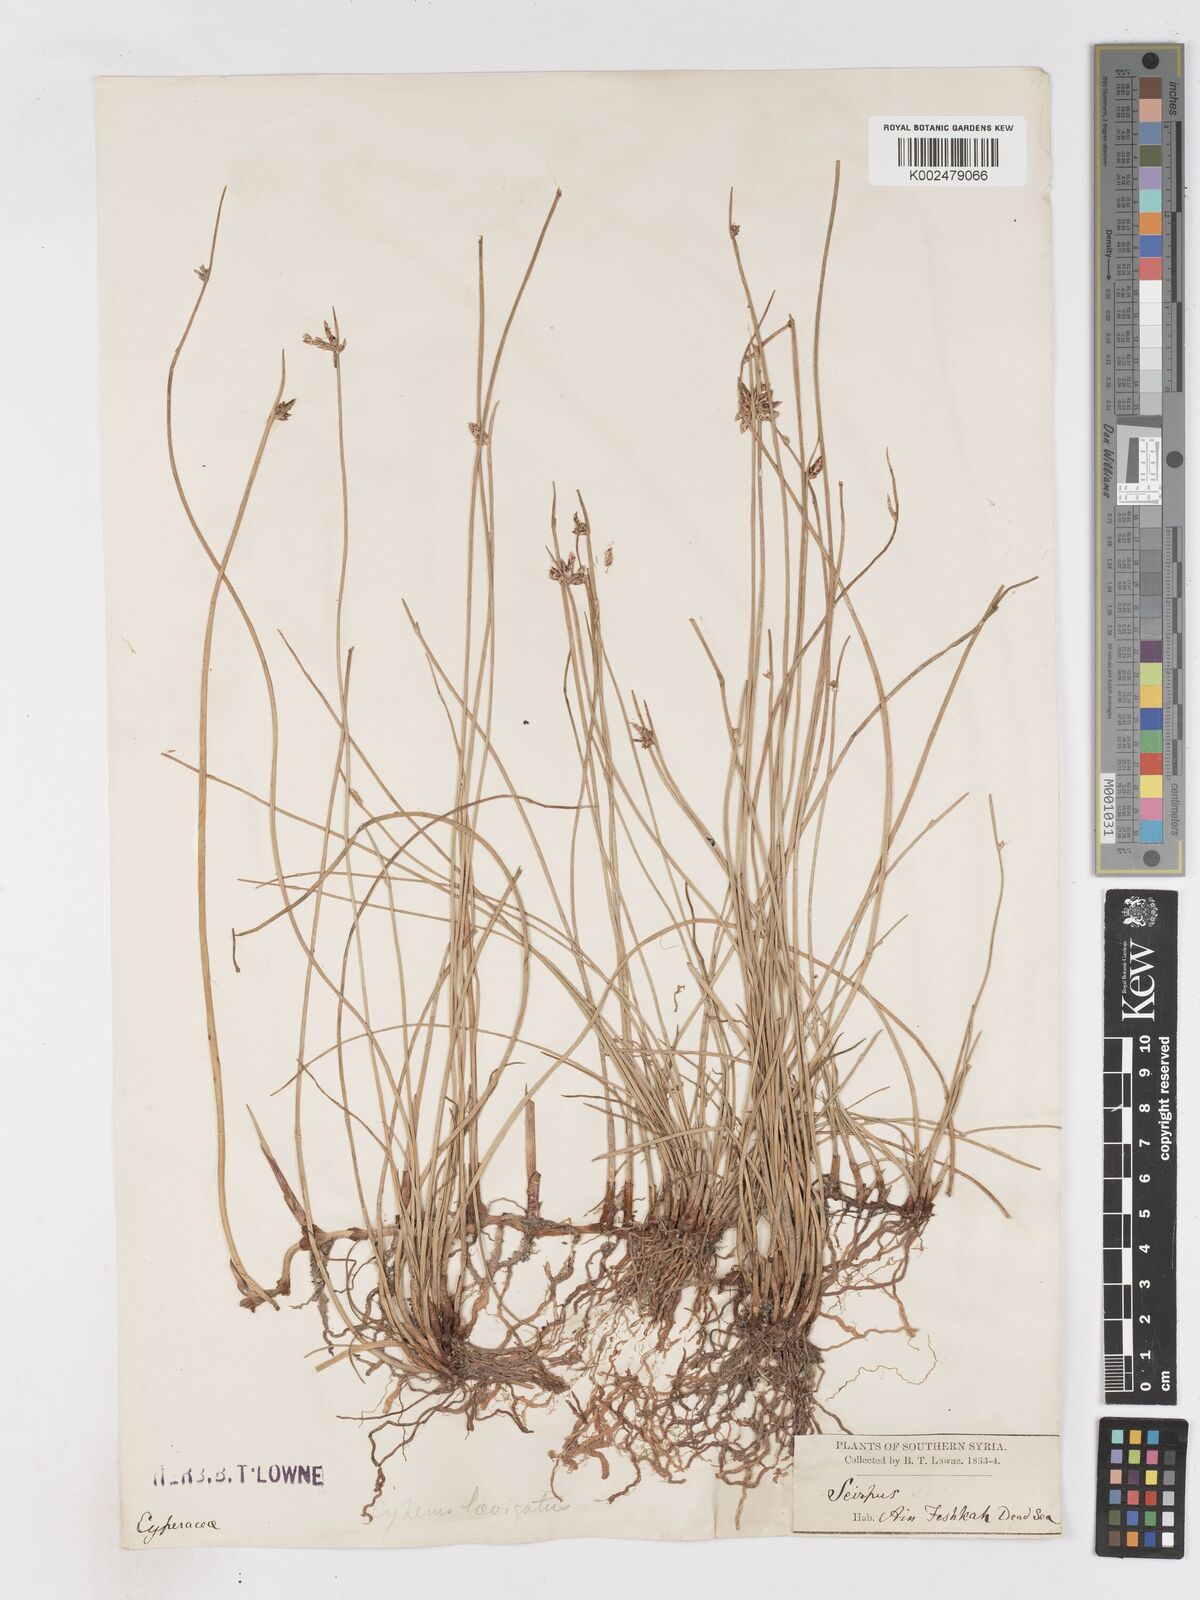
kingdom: Plantae
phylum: Tracheophyta
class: Liliopsida
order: Poales
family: Cyperaceae
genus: Cyperus
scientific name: Cyperus laevigatus
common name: Smooth flat sedge
